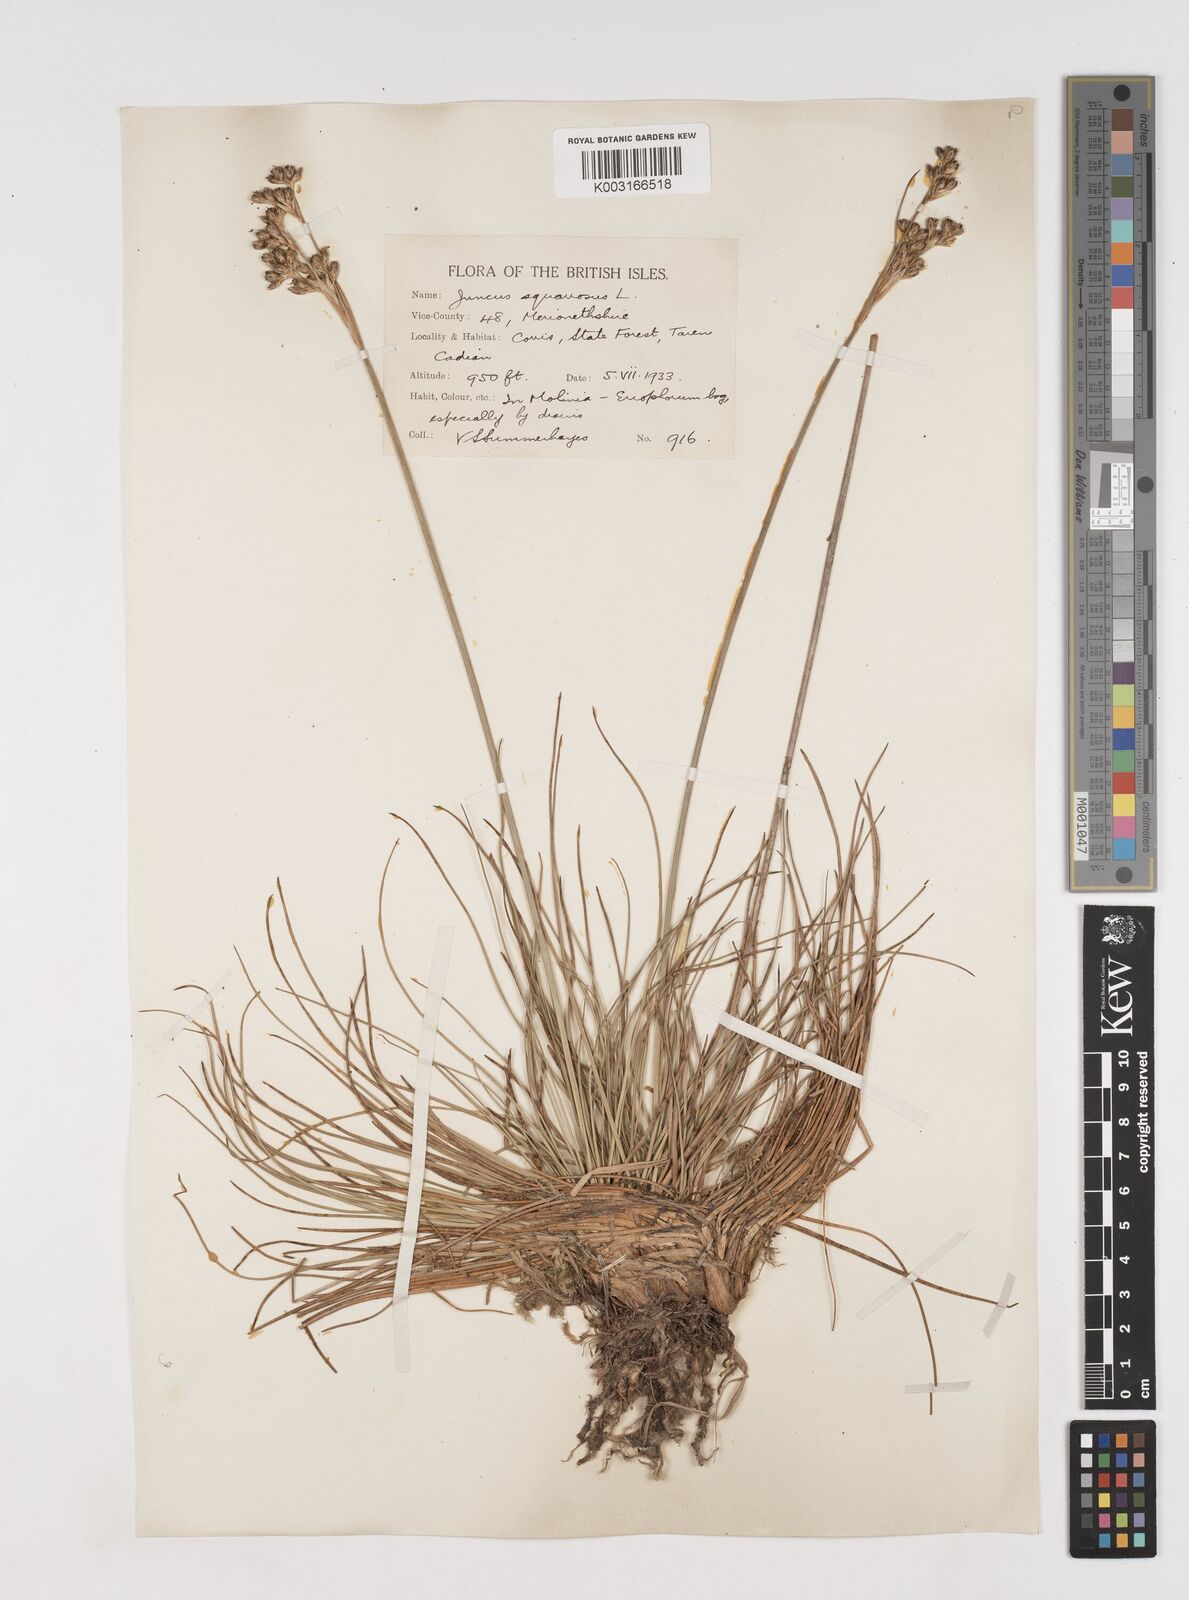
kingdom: Plantae
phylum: Tracheophyta
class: Liliopsida
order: Poales
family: Juncaceae
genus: Juncus
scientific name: Juncus squarrosus
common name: Heath rush
